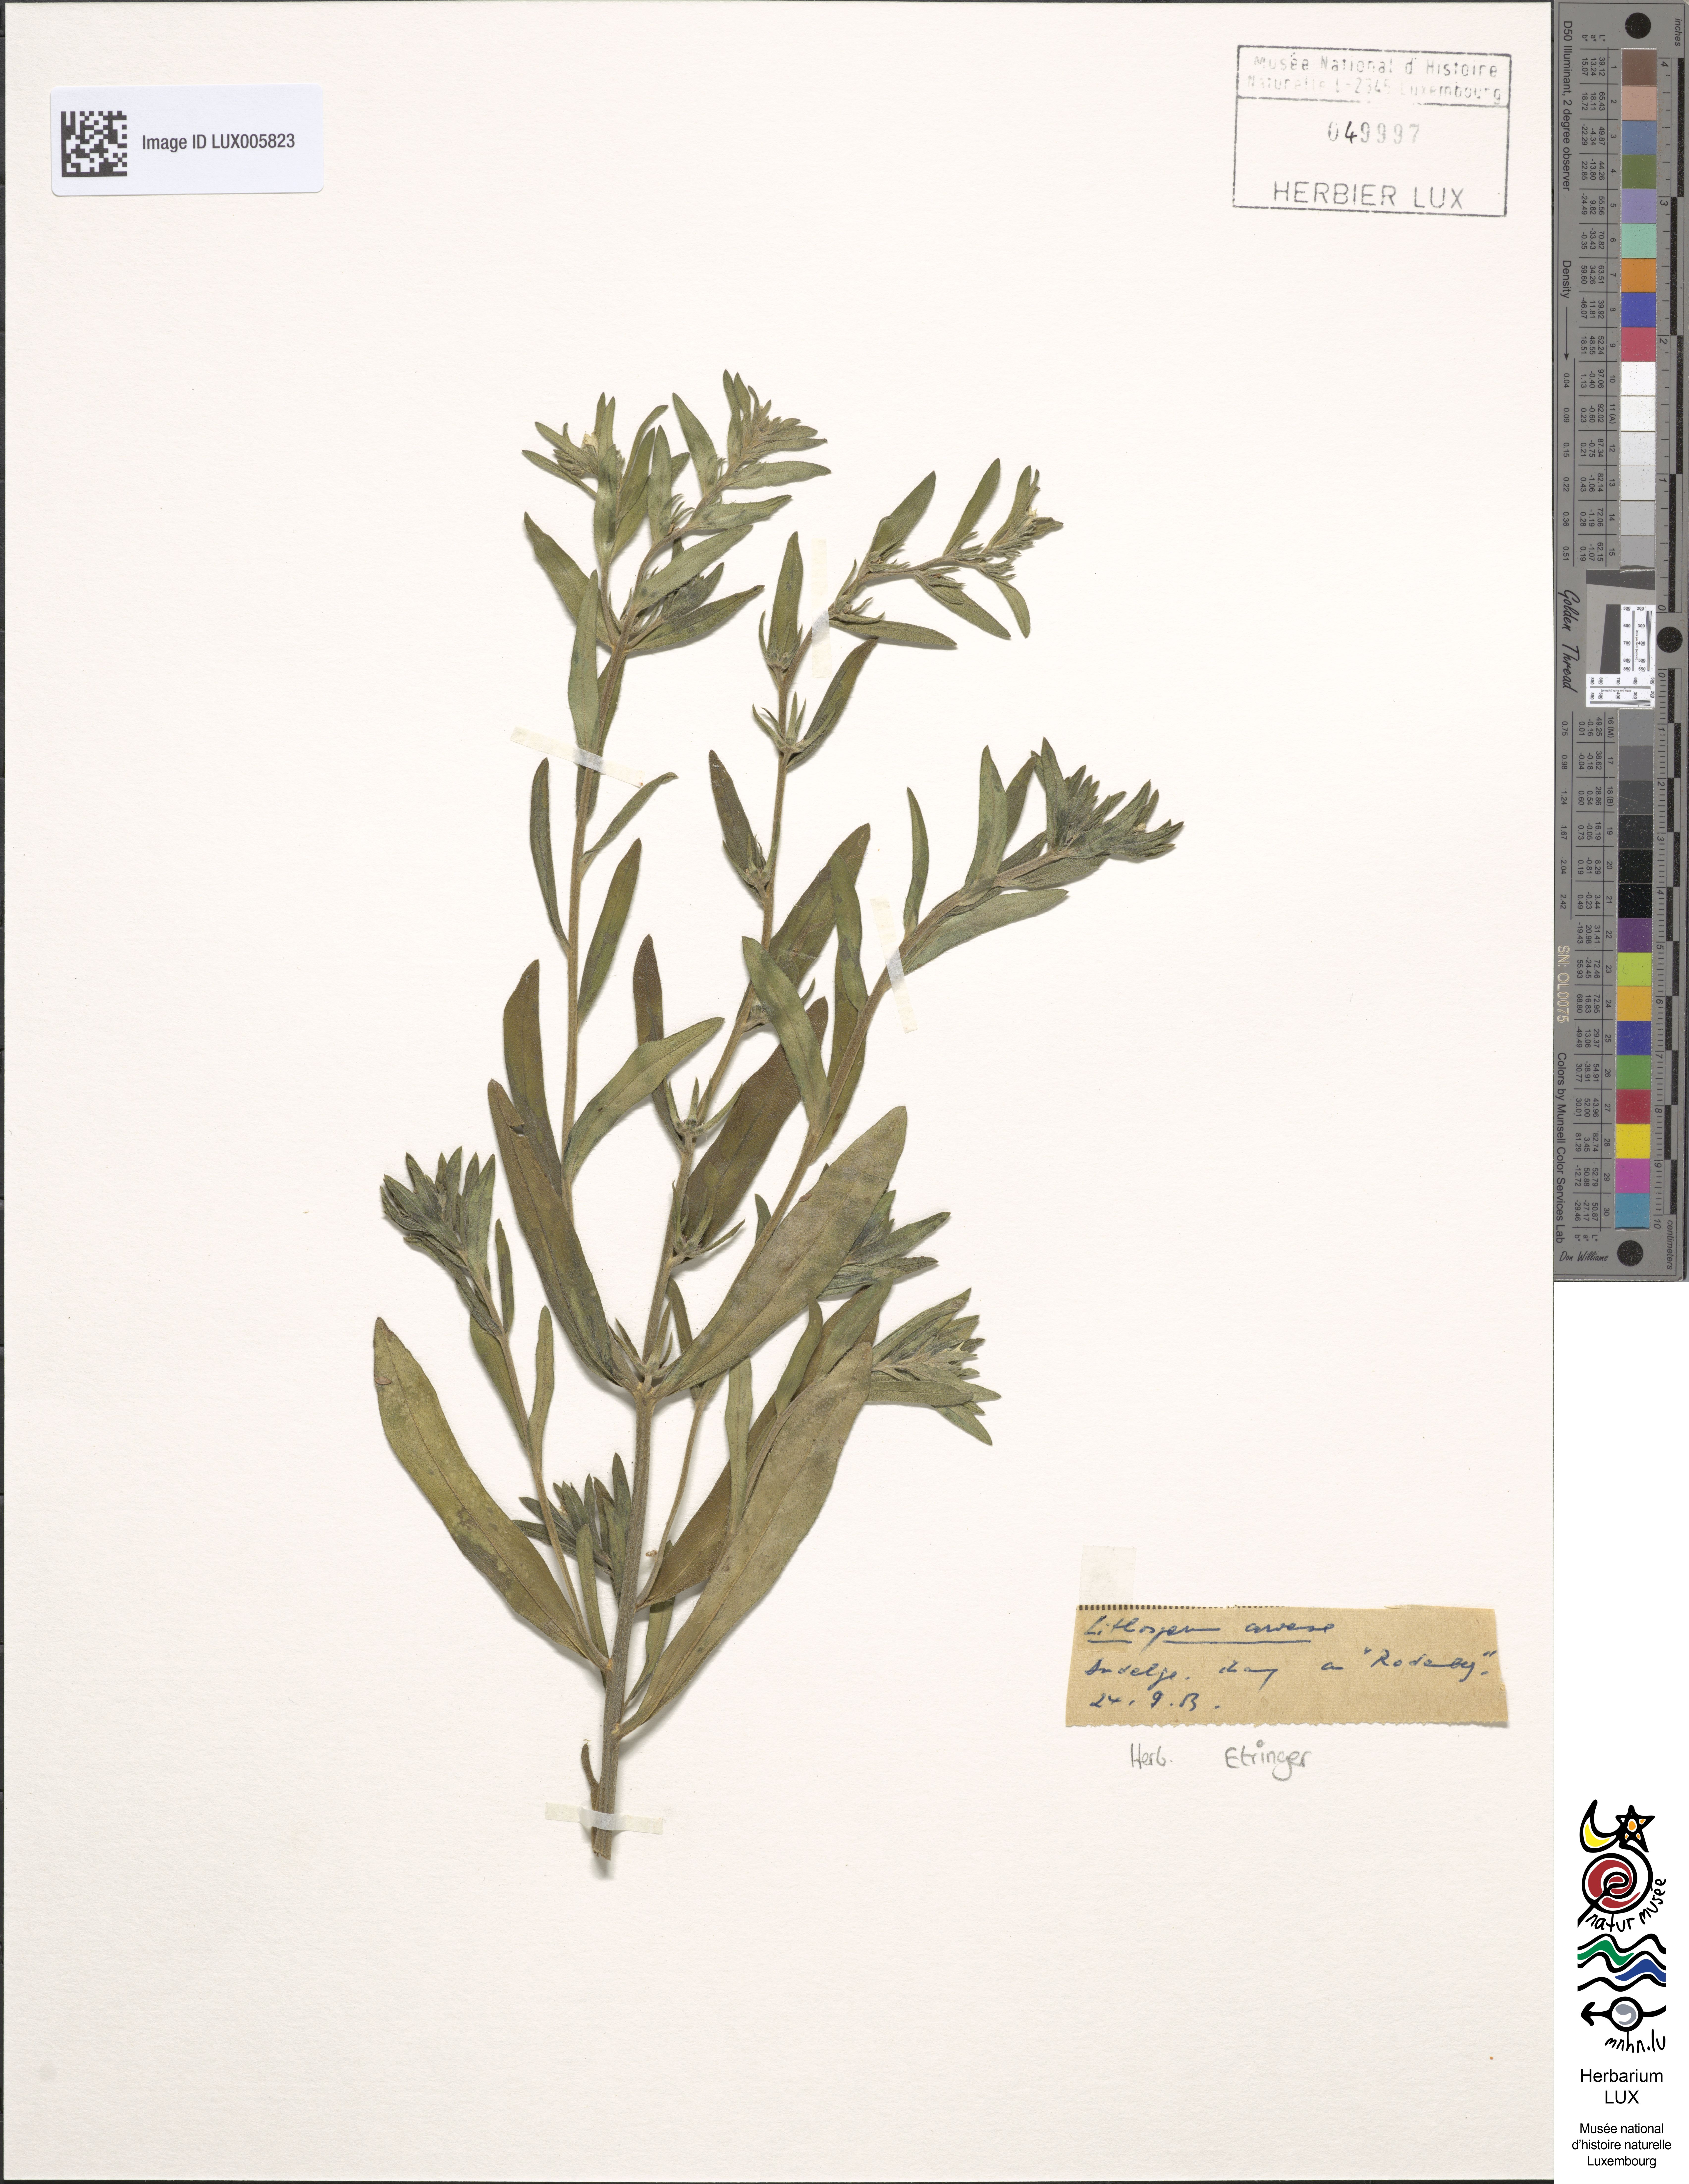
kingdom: Plantae
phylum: Tracheophyta
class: Magnoliopsida
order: Boraginales
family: Boraginaceae
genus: Buglossoides
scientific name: Buglossoides arvensis
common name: Corn gromwell
